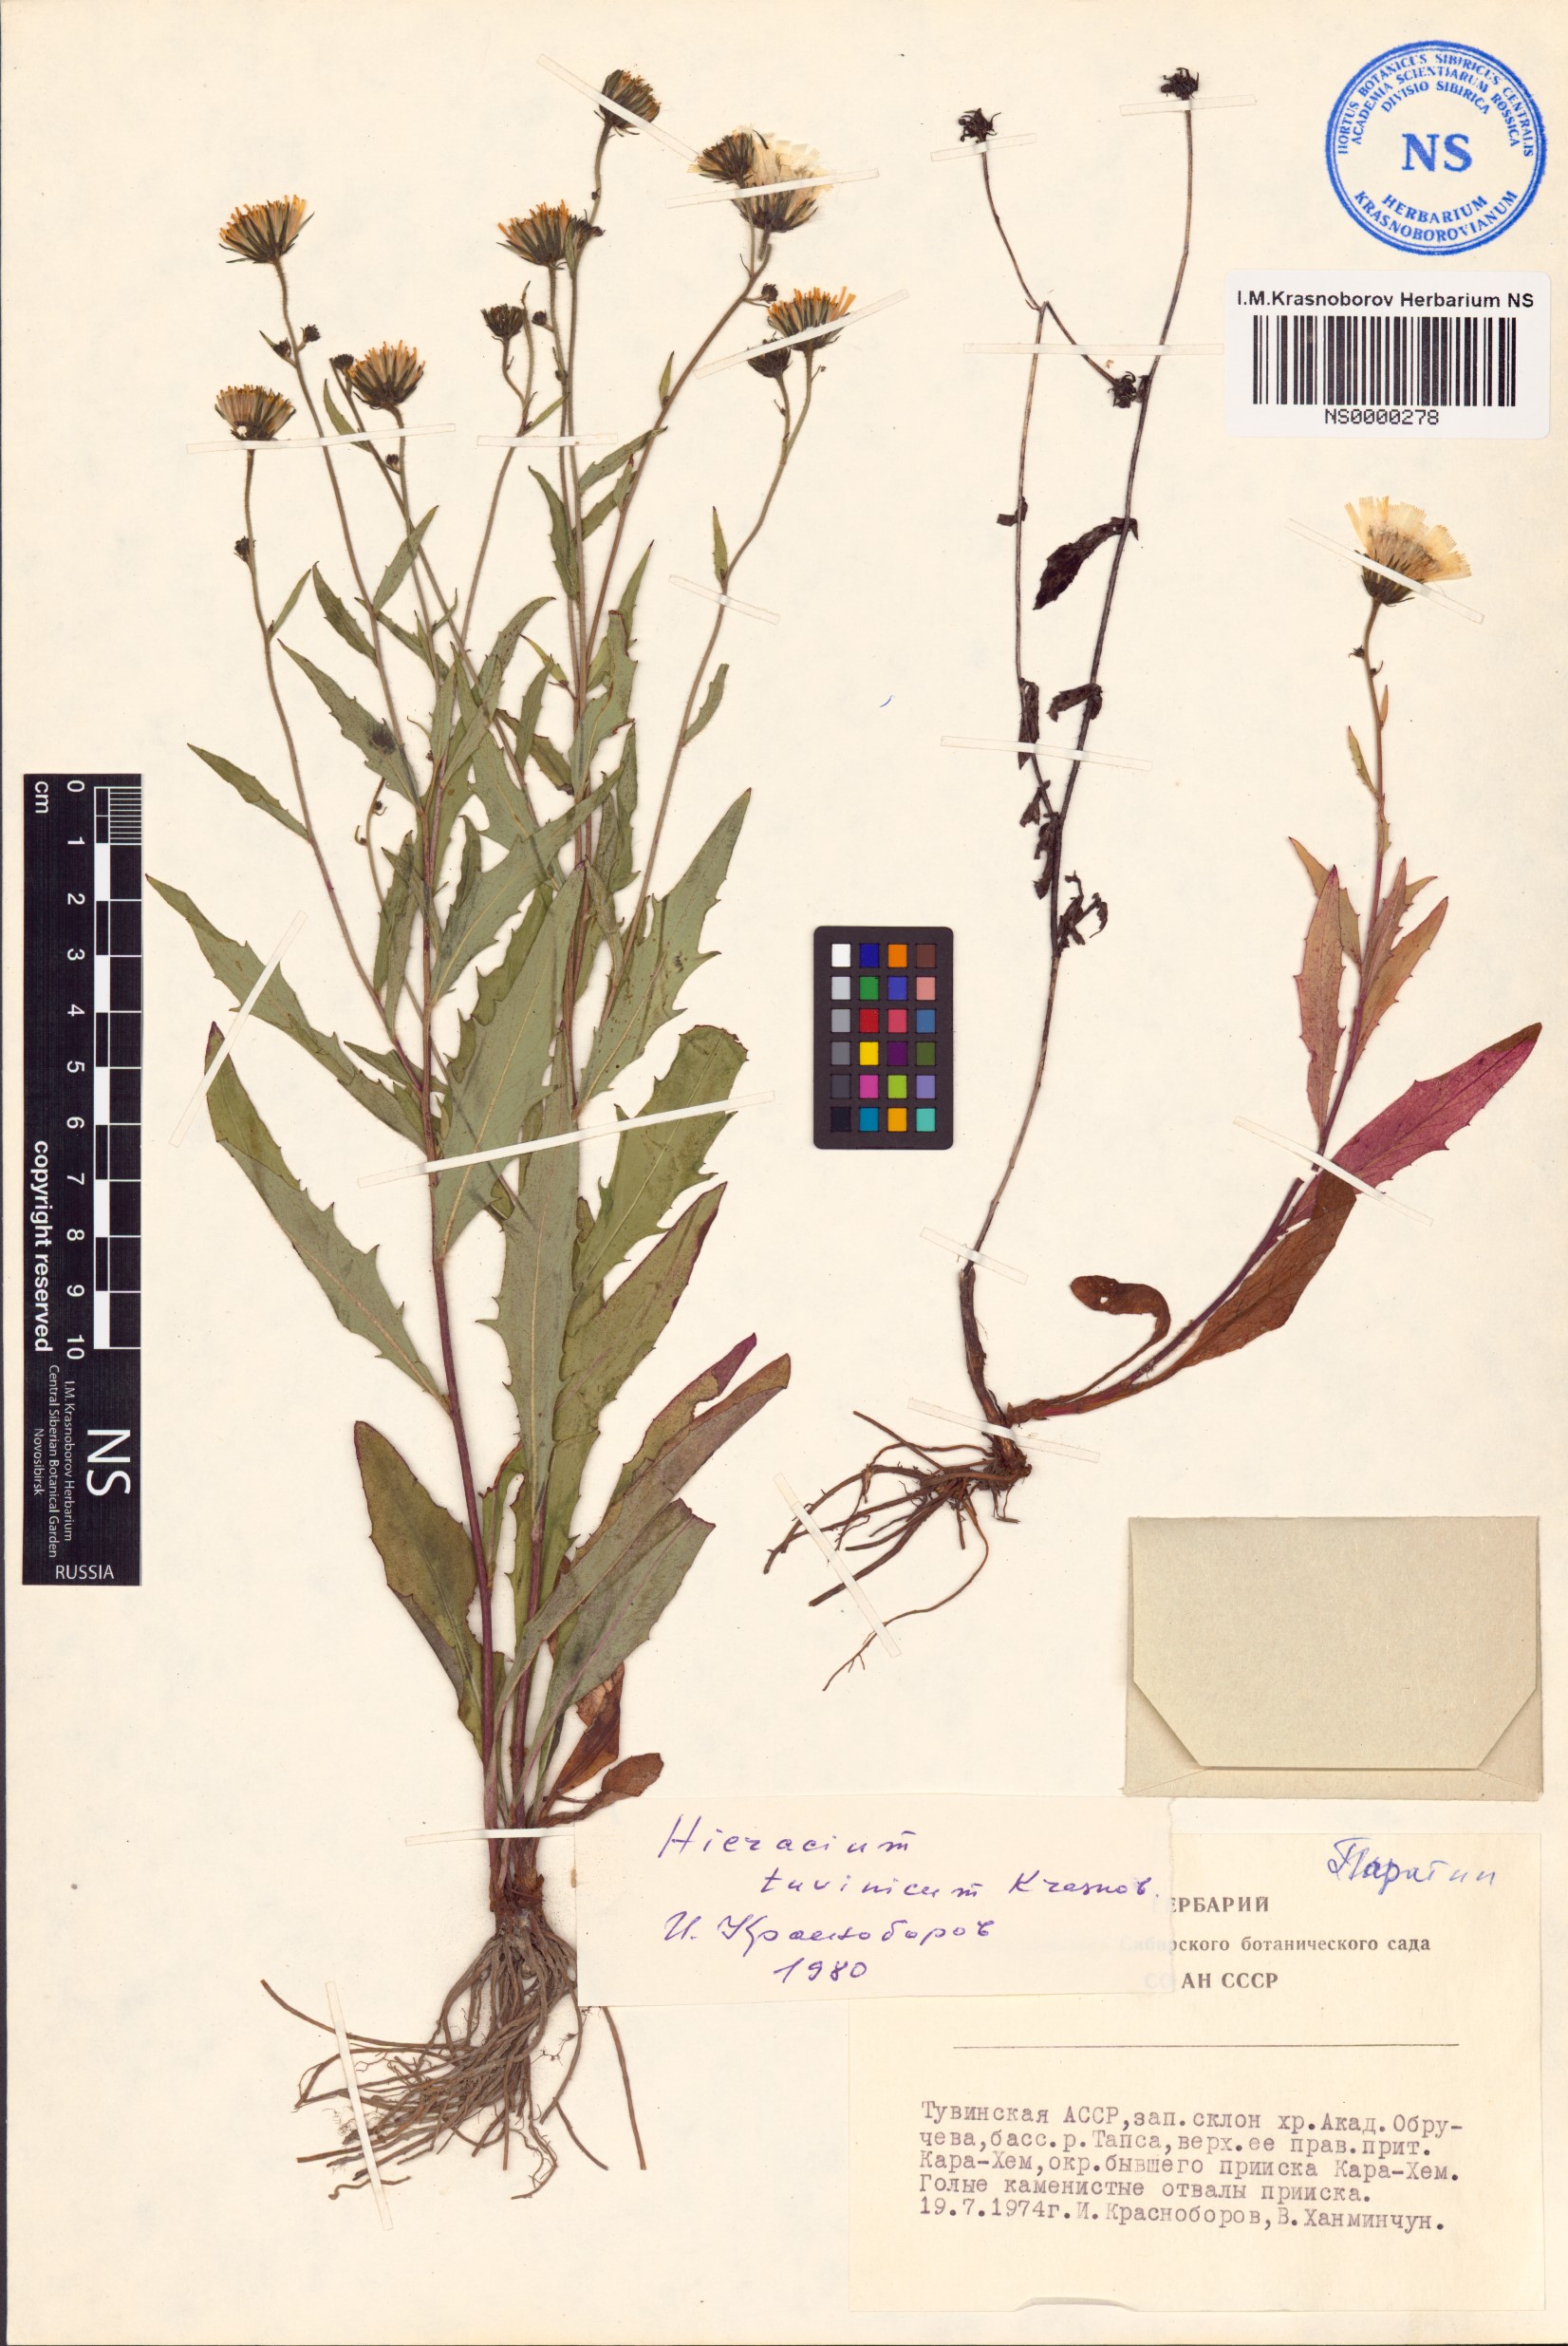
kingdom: Plantae
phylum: Tracheophyta
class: Magnoliopsida
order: Asterales
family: Asteraceae
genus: Hieracium
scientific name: Hieracium tuvinicum
